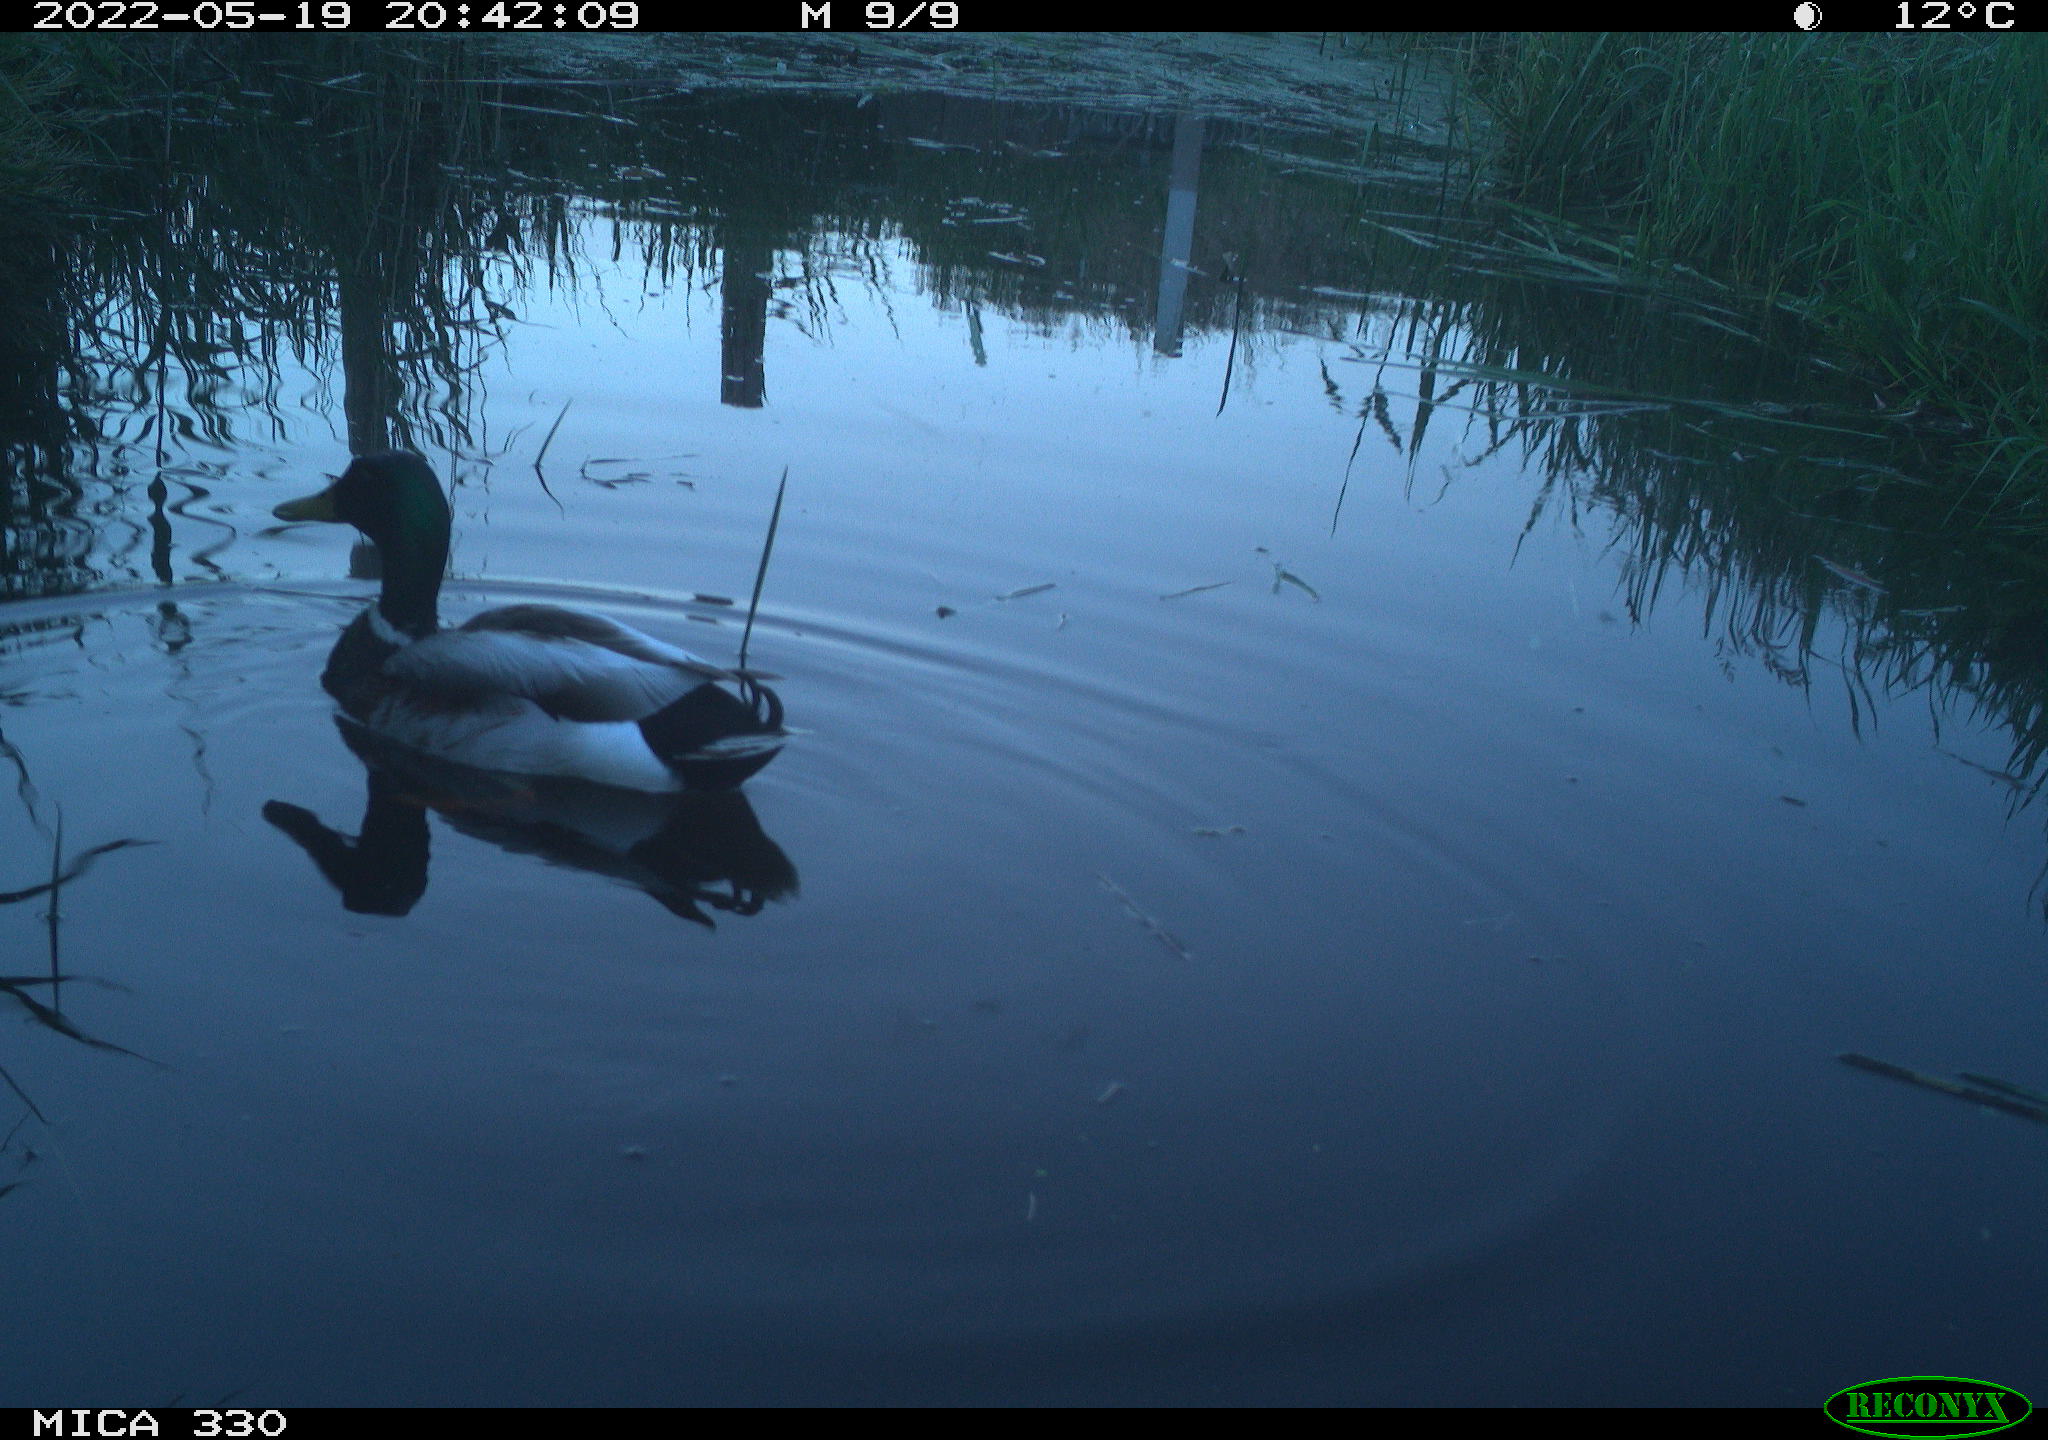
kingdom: Animalia
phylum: Chordata
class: Aves
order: Anseriformes
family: Anatidae
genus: Anas
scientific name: Anas platyrhynchos
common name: Mallard
